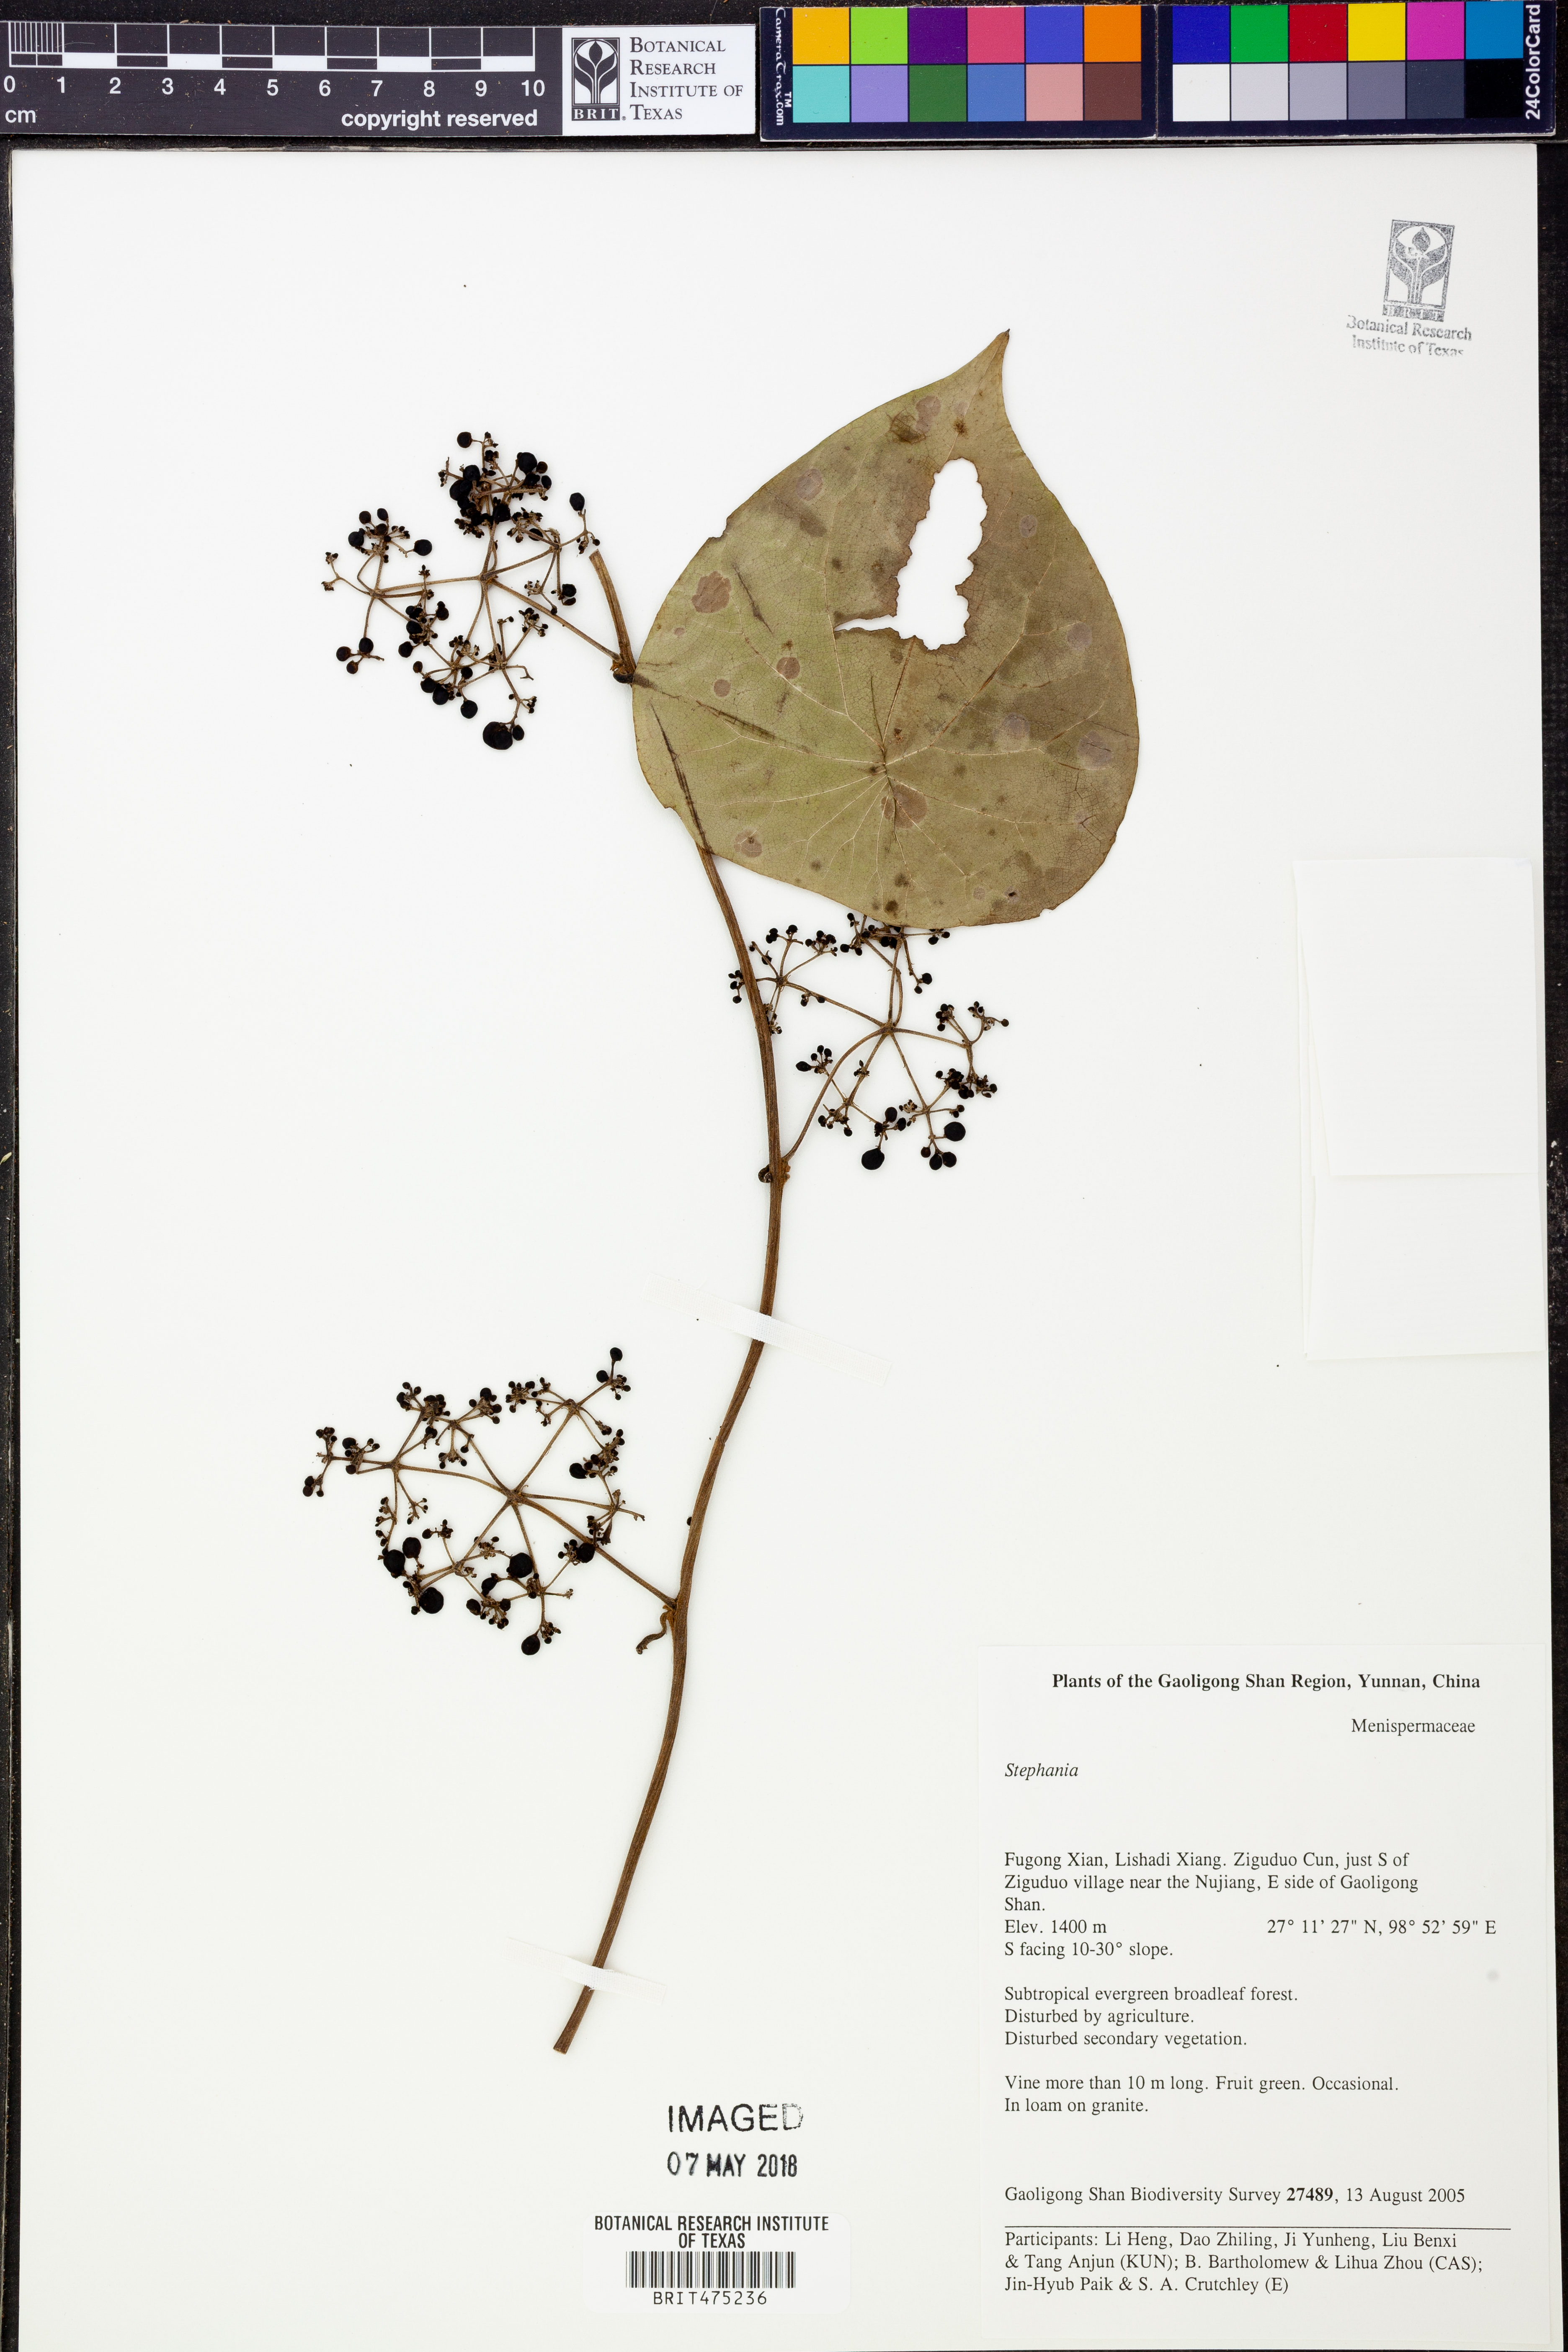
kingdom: Plantae
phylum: Tracheophyta
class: Magnoliopsida
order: Ranunculales
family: Menispermaceae
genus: Stephania
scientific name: Stephania
